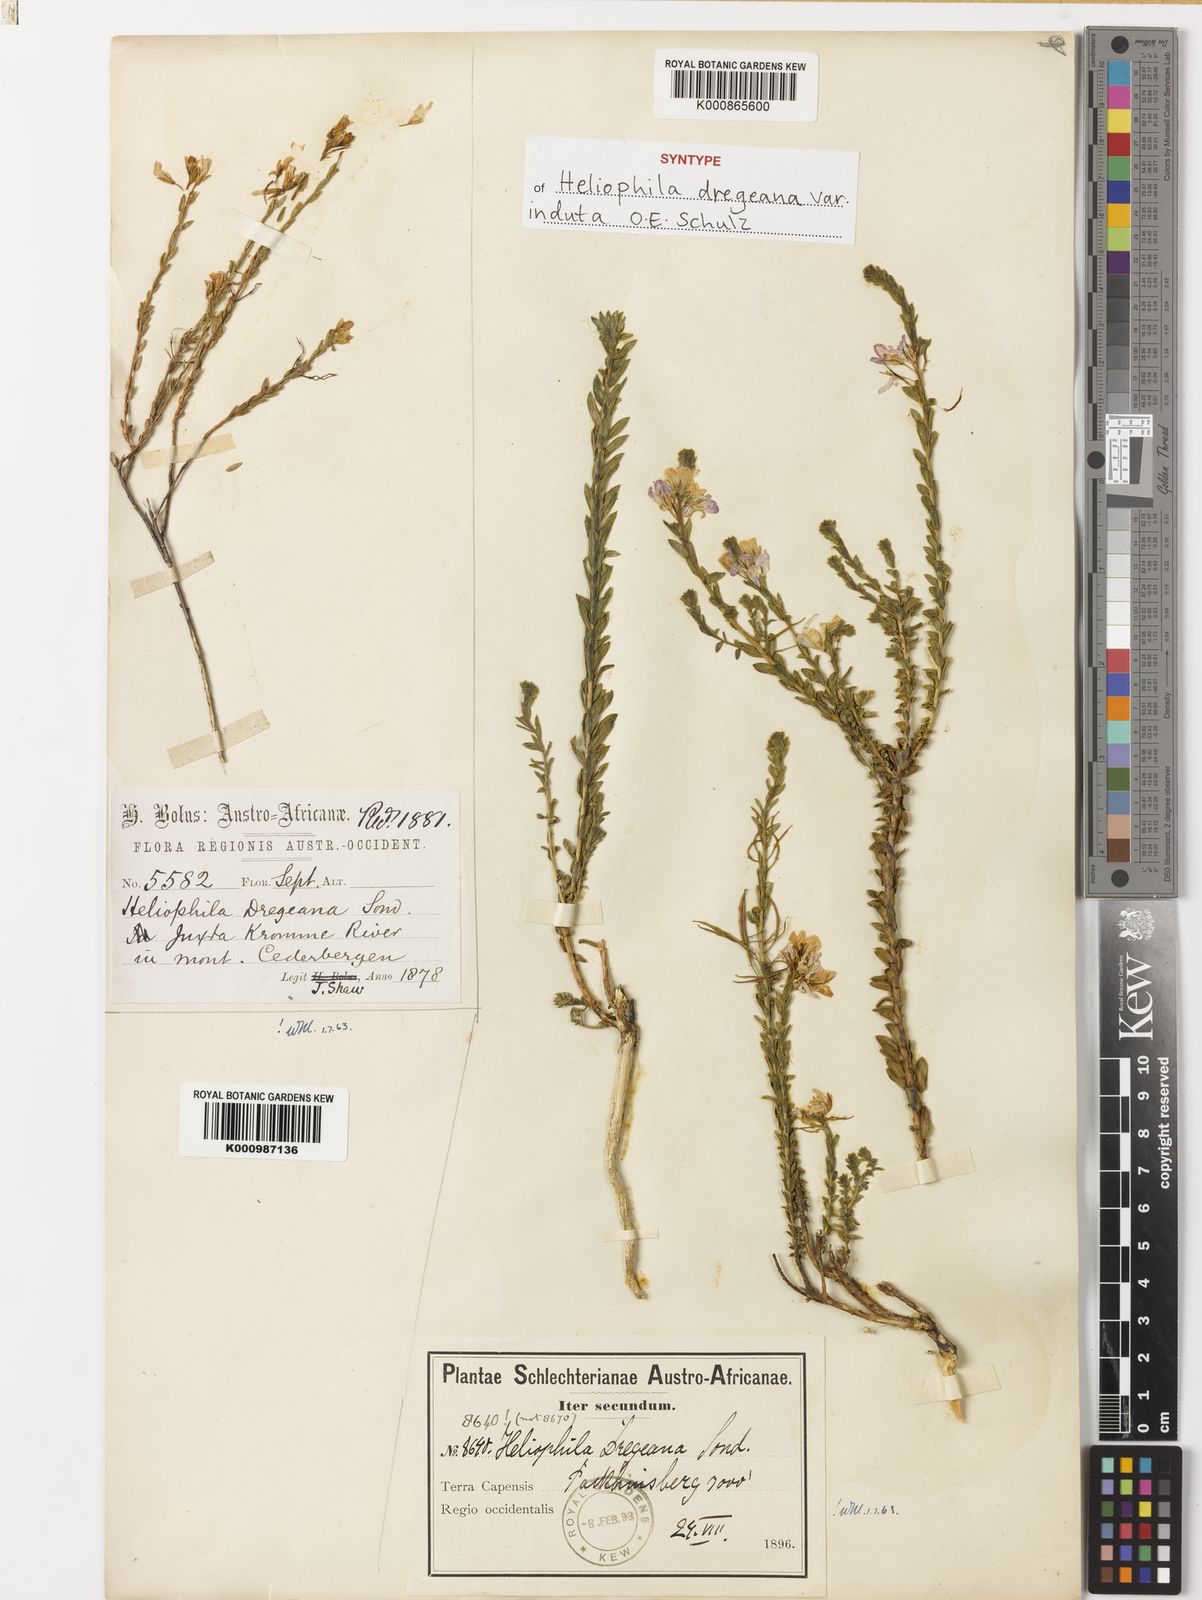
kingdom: Plantae
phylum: Tracheophyta
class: Magnoliopsida
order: Brassicales
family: Brassicaceae
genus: Heliophila
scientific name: Heliophila dregeana
